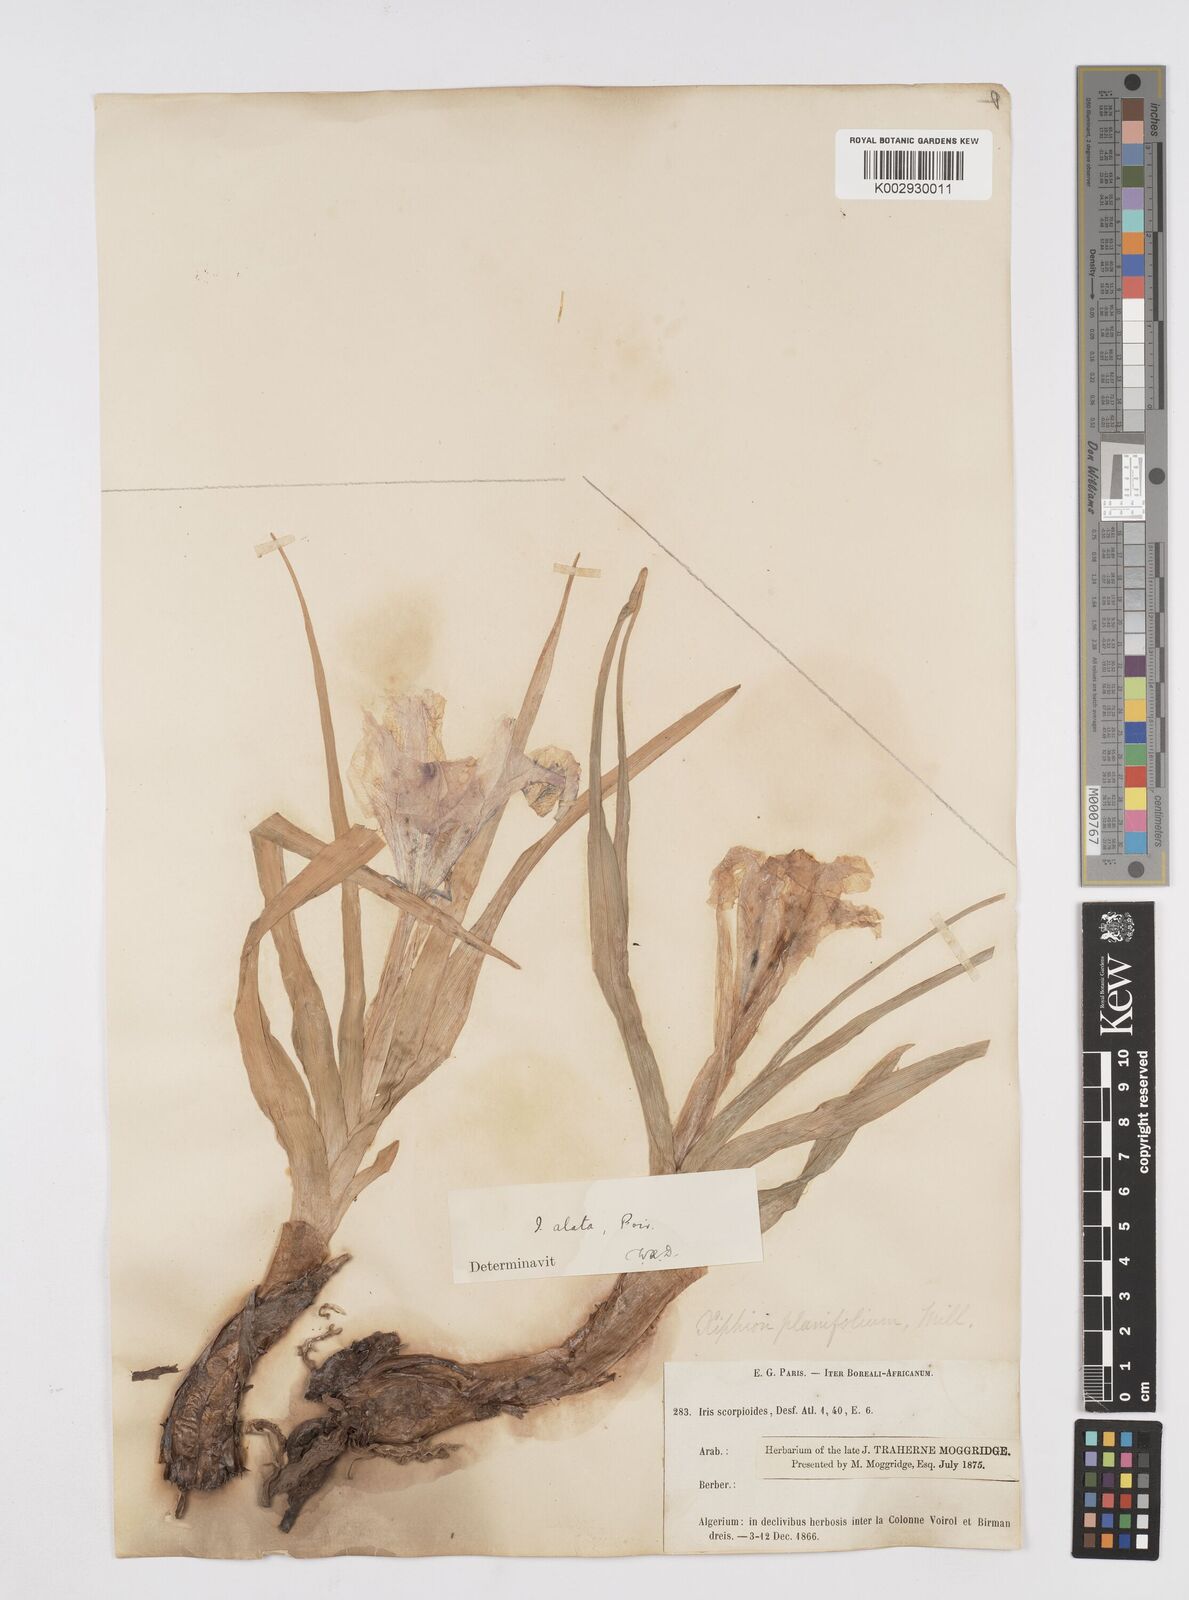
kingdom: Plantae
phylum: Tracheophyta
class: Liliopsida
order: Asparagales
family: Iridaceae
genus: Iris
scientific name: Iris planifolia
